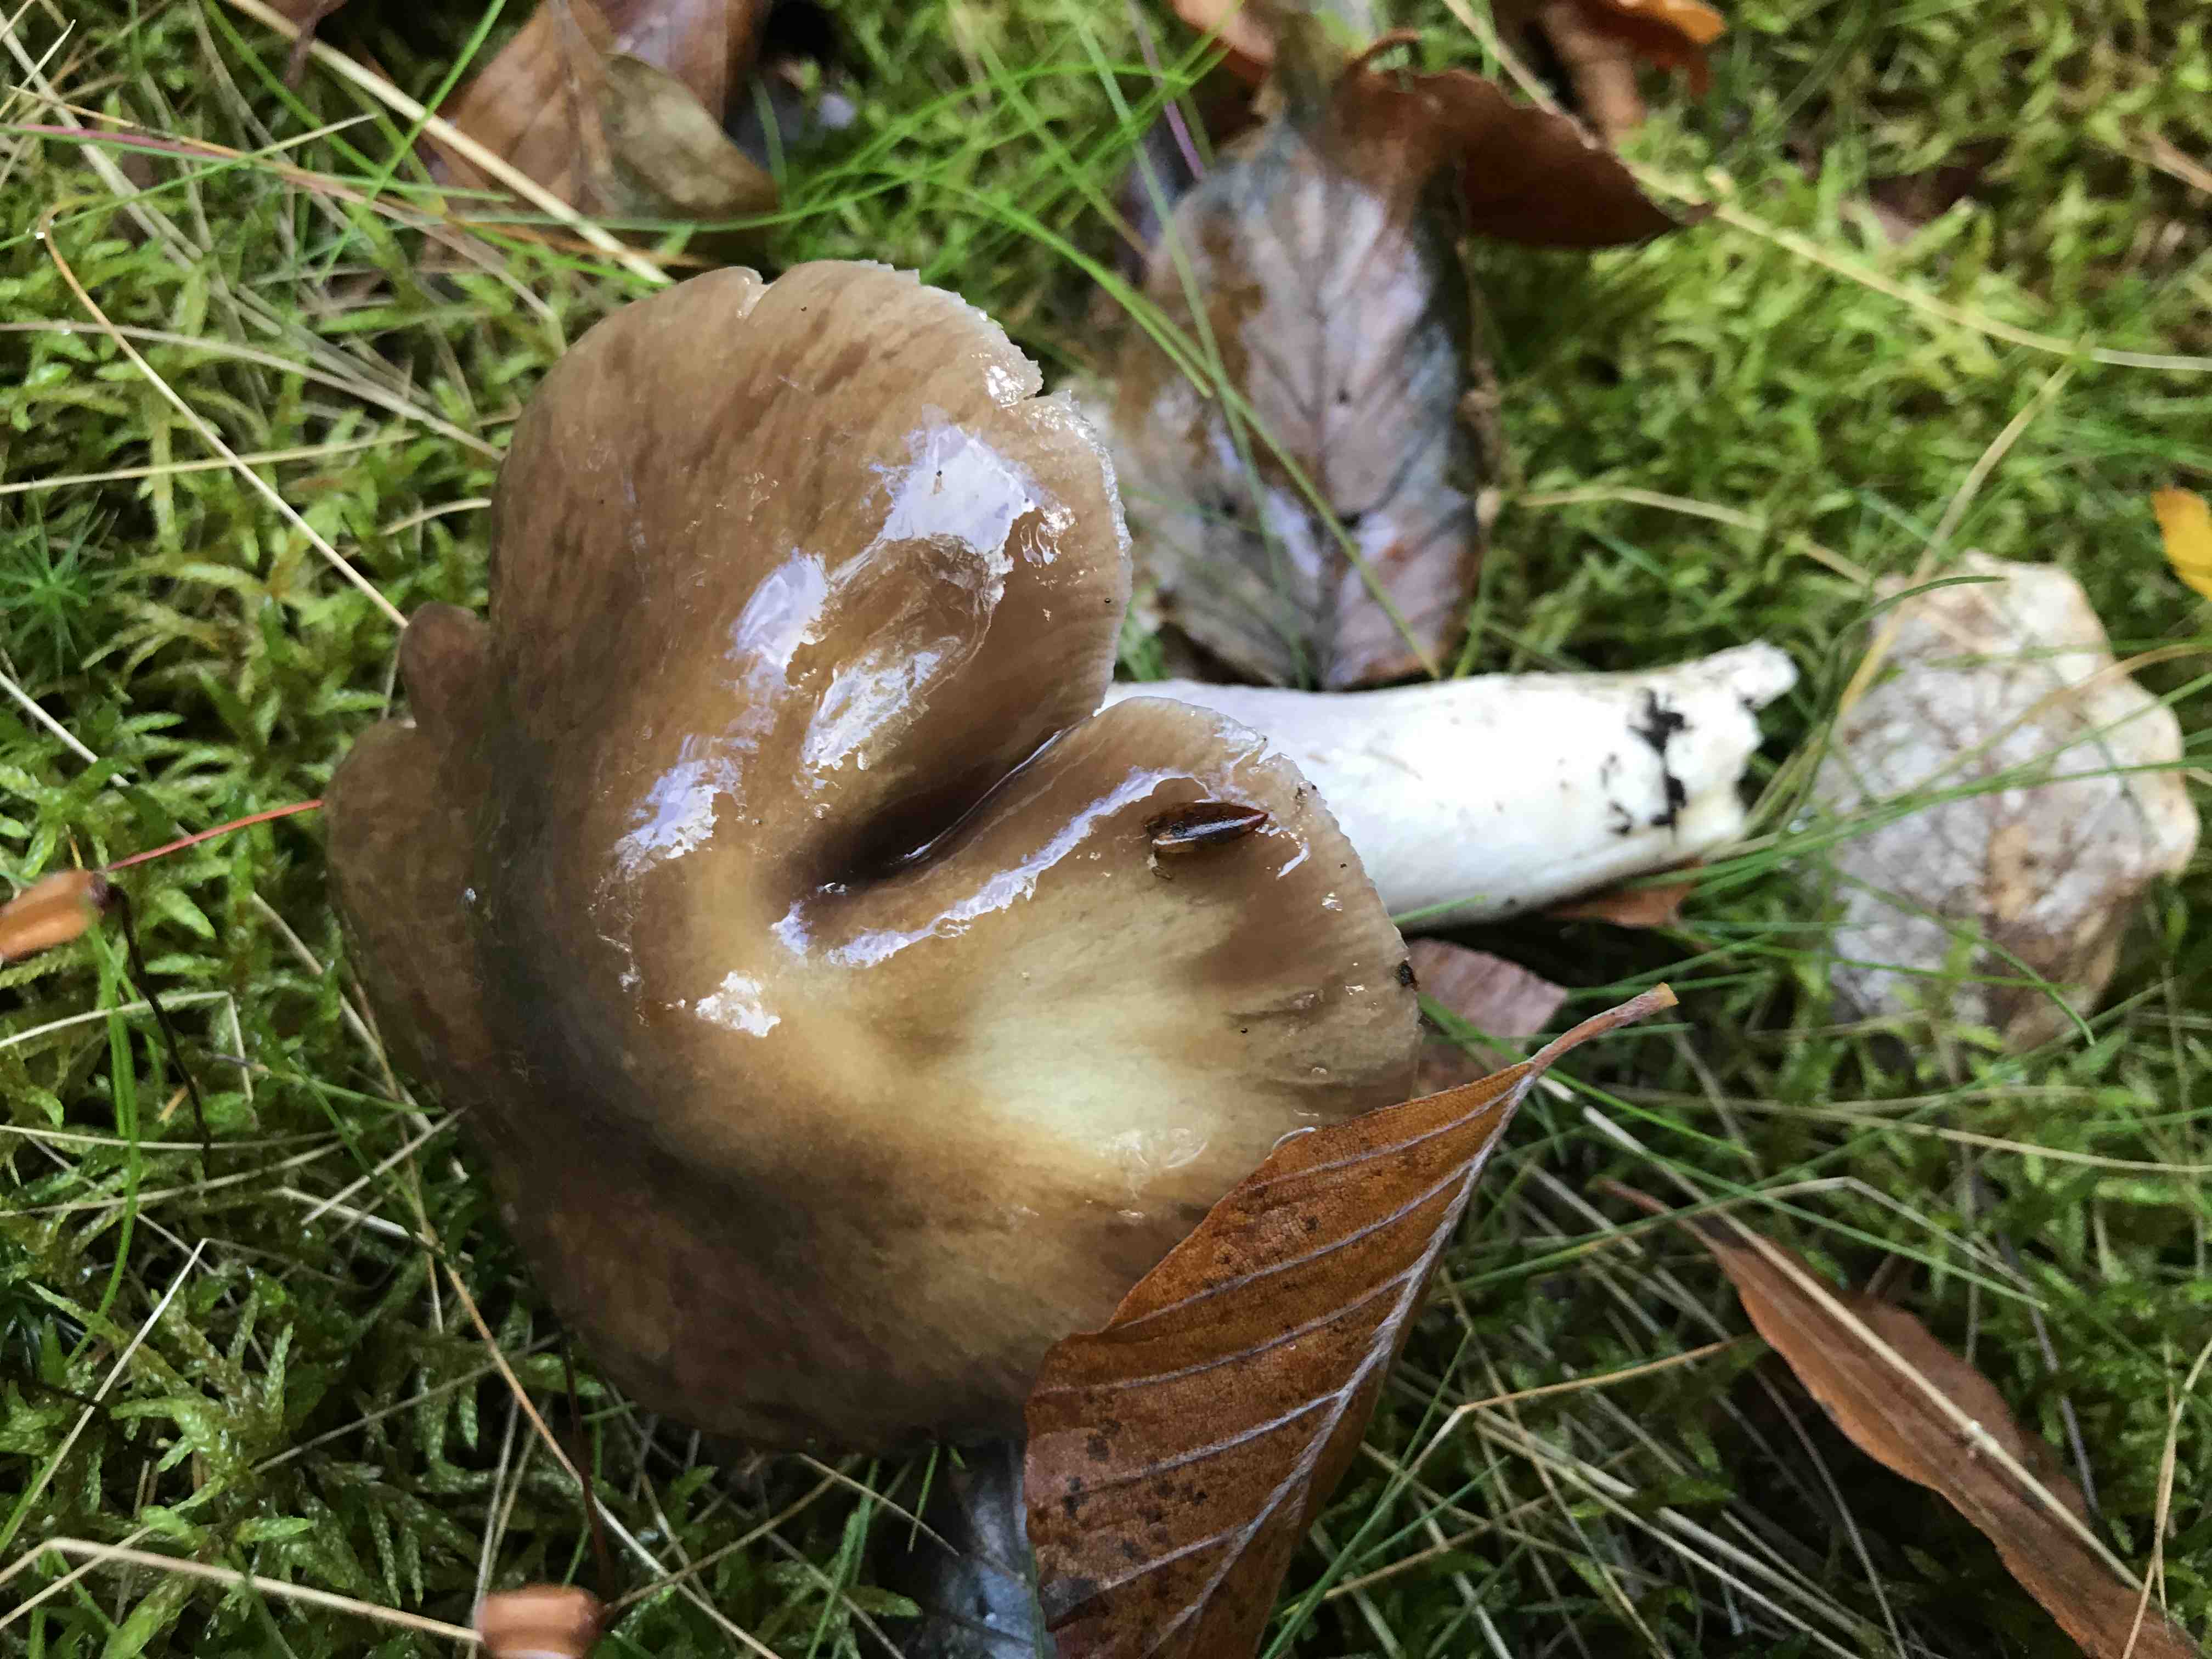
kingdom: Fungi
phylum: Basidiomycota
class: Agaricomycetes
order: Agaricales
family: Cortinariaceae
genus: Cortinarius
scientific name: Cortinarius
